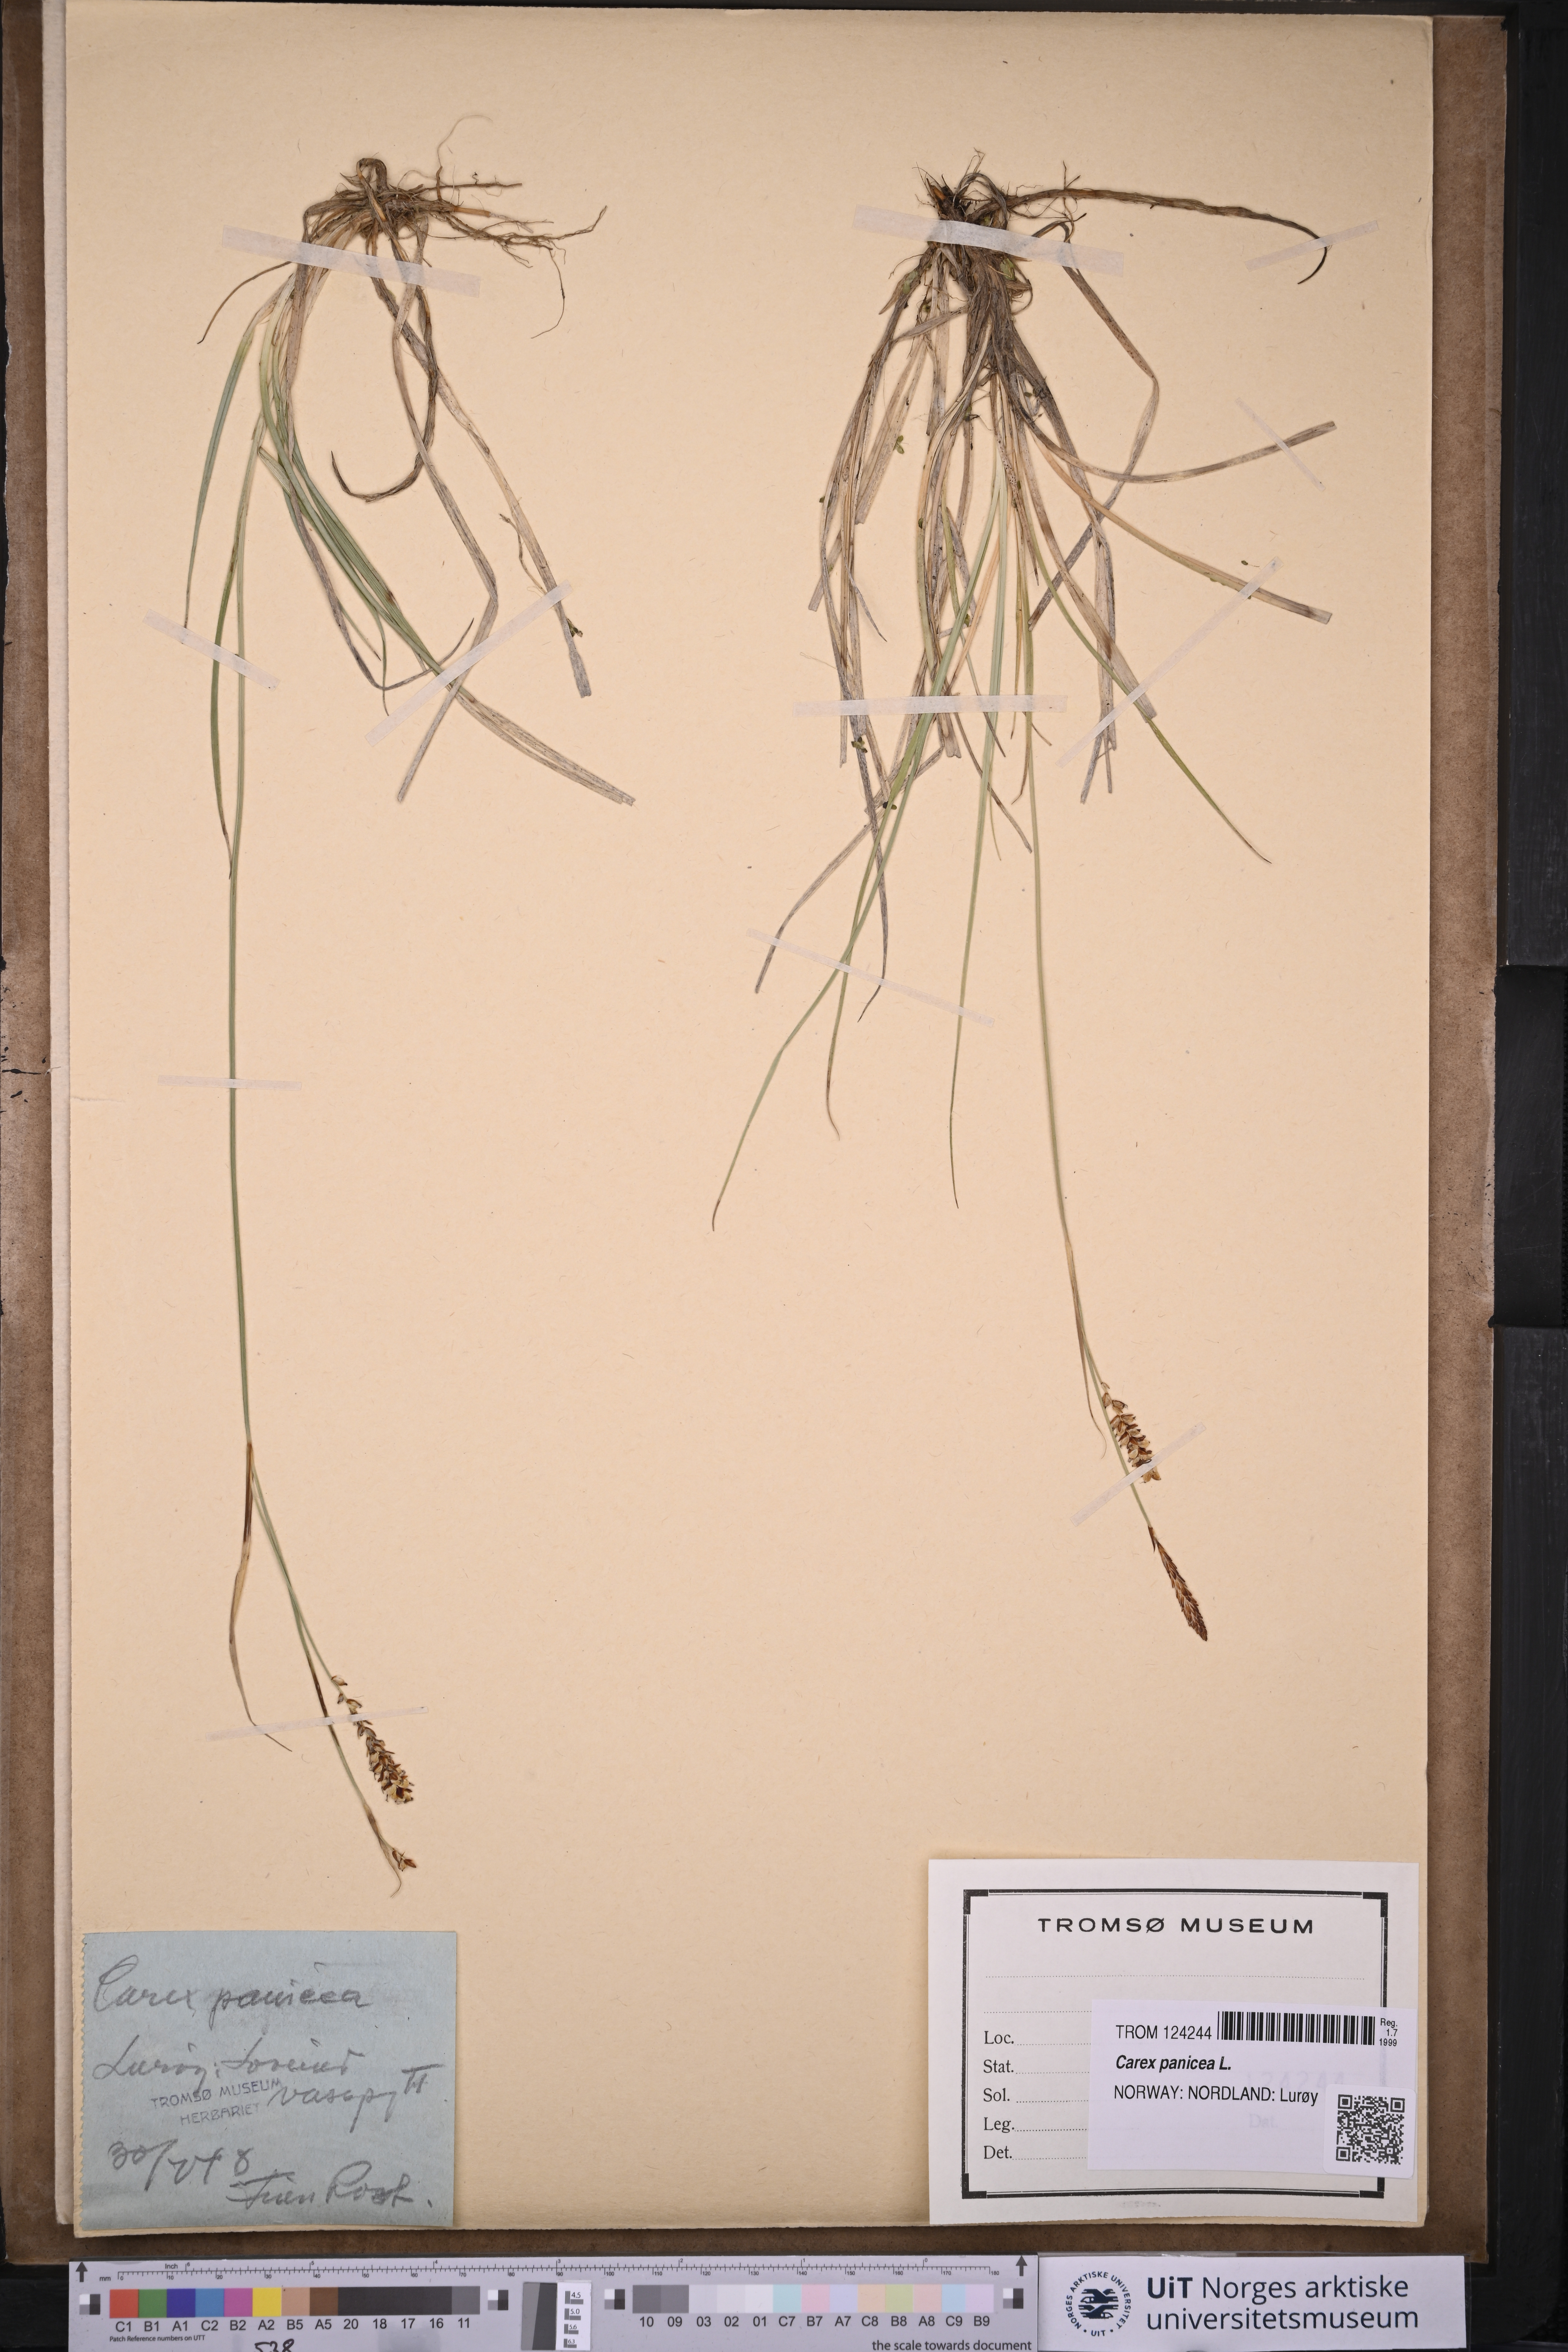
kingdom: Plantae
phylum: Tracheophyta
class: Liliopsida
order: Poales
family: Cyperaceae
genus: Carex
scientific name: Carex panicea
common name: Carnation sedge
